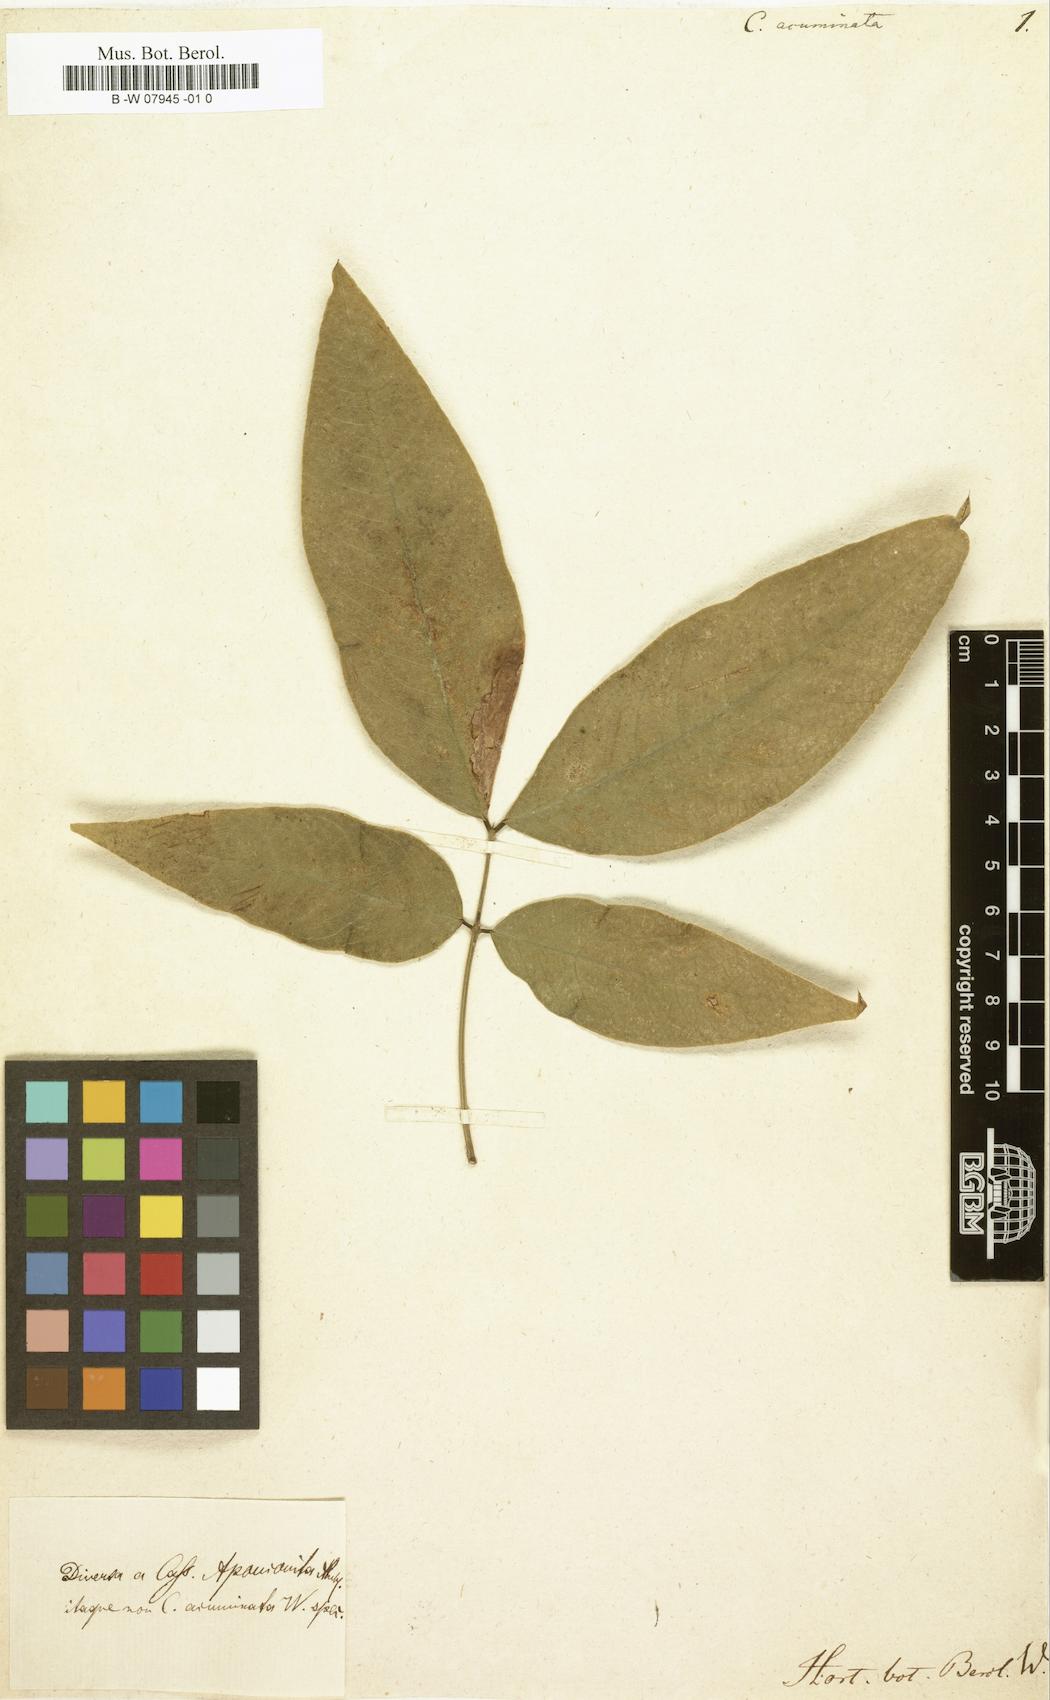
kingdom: Plantae
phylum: Tracheophyta
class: Magnoliopsida
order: Fabales
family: Fabaceae
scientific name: Fabaceae
